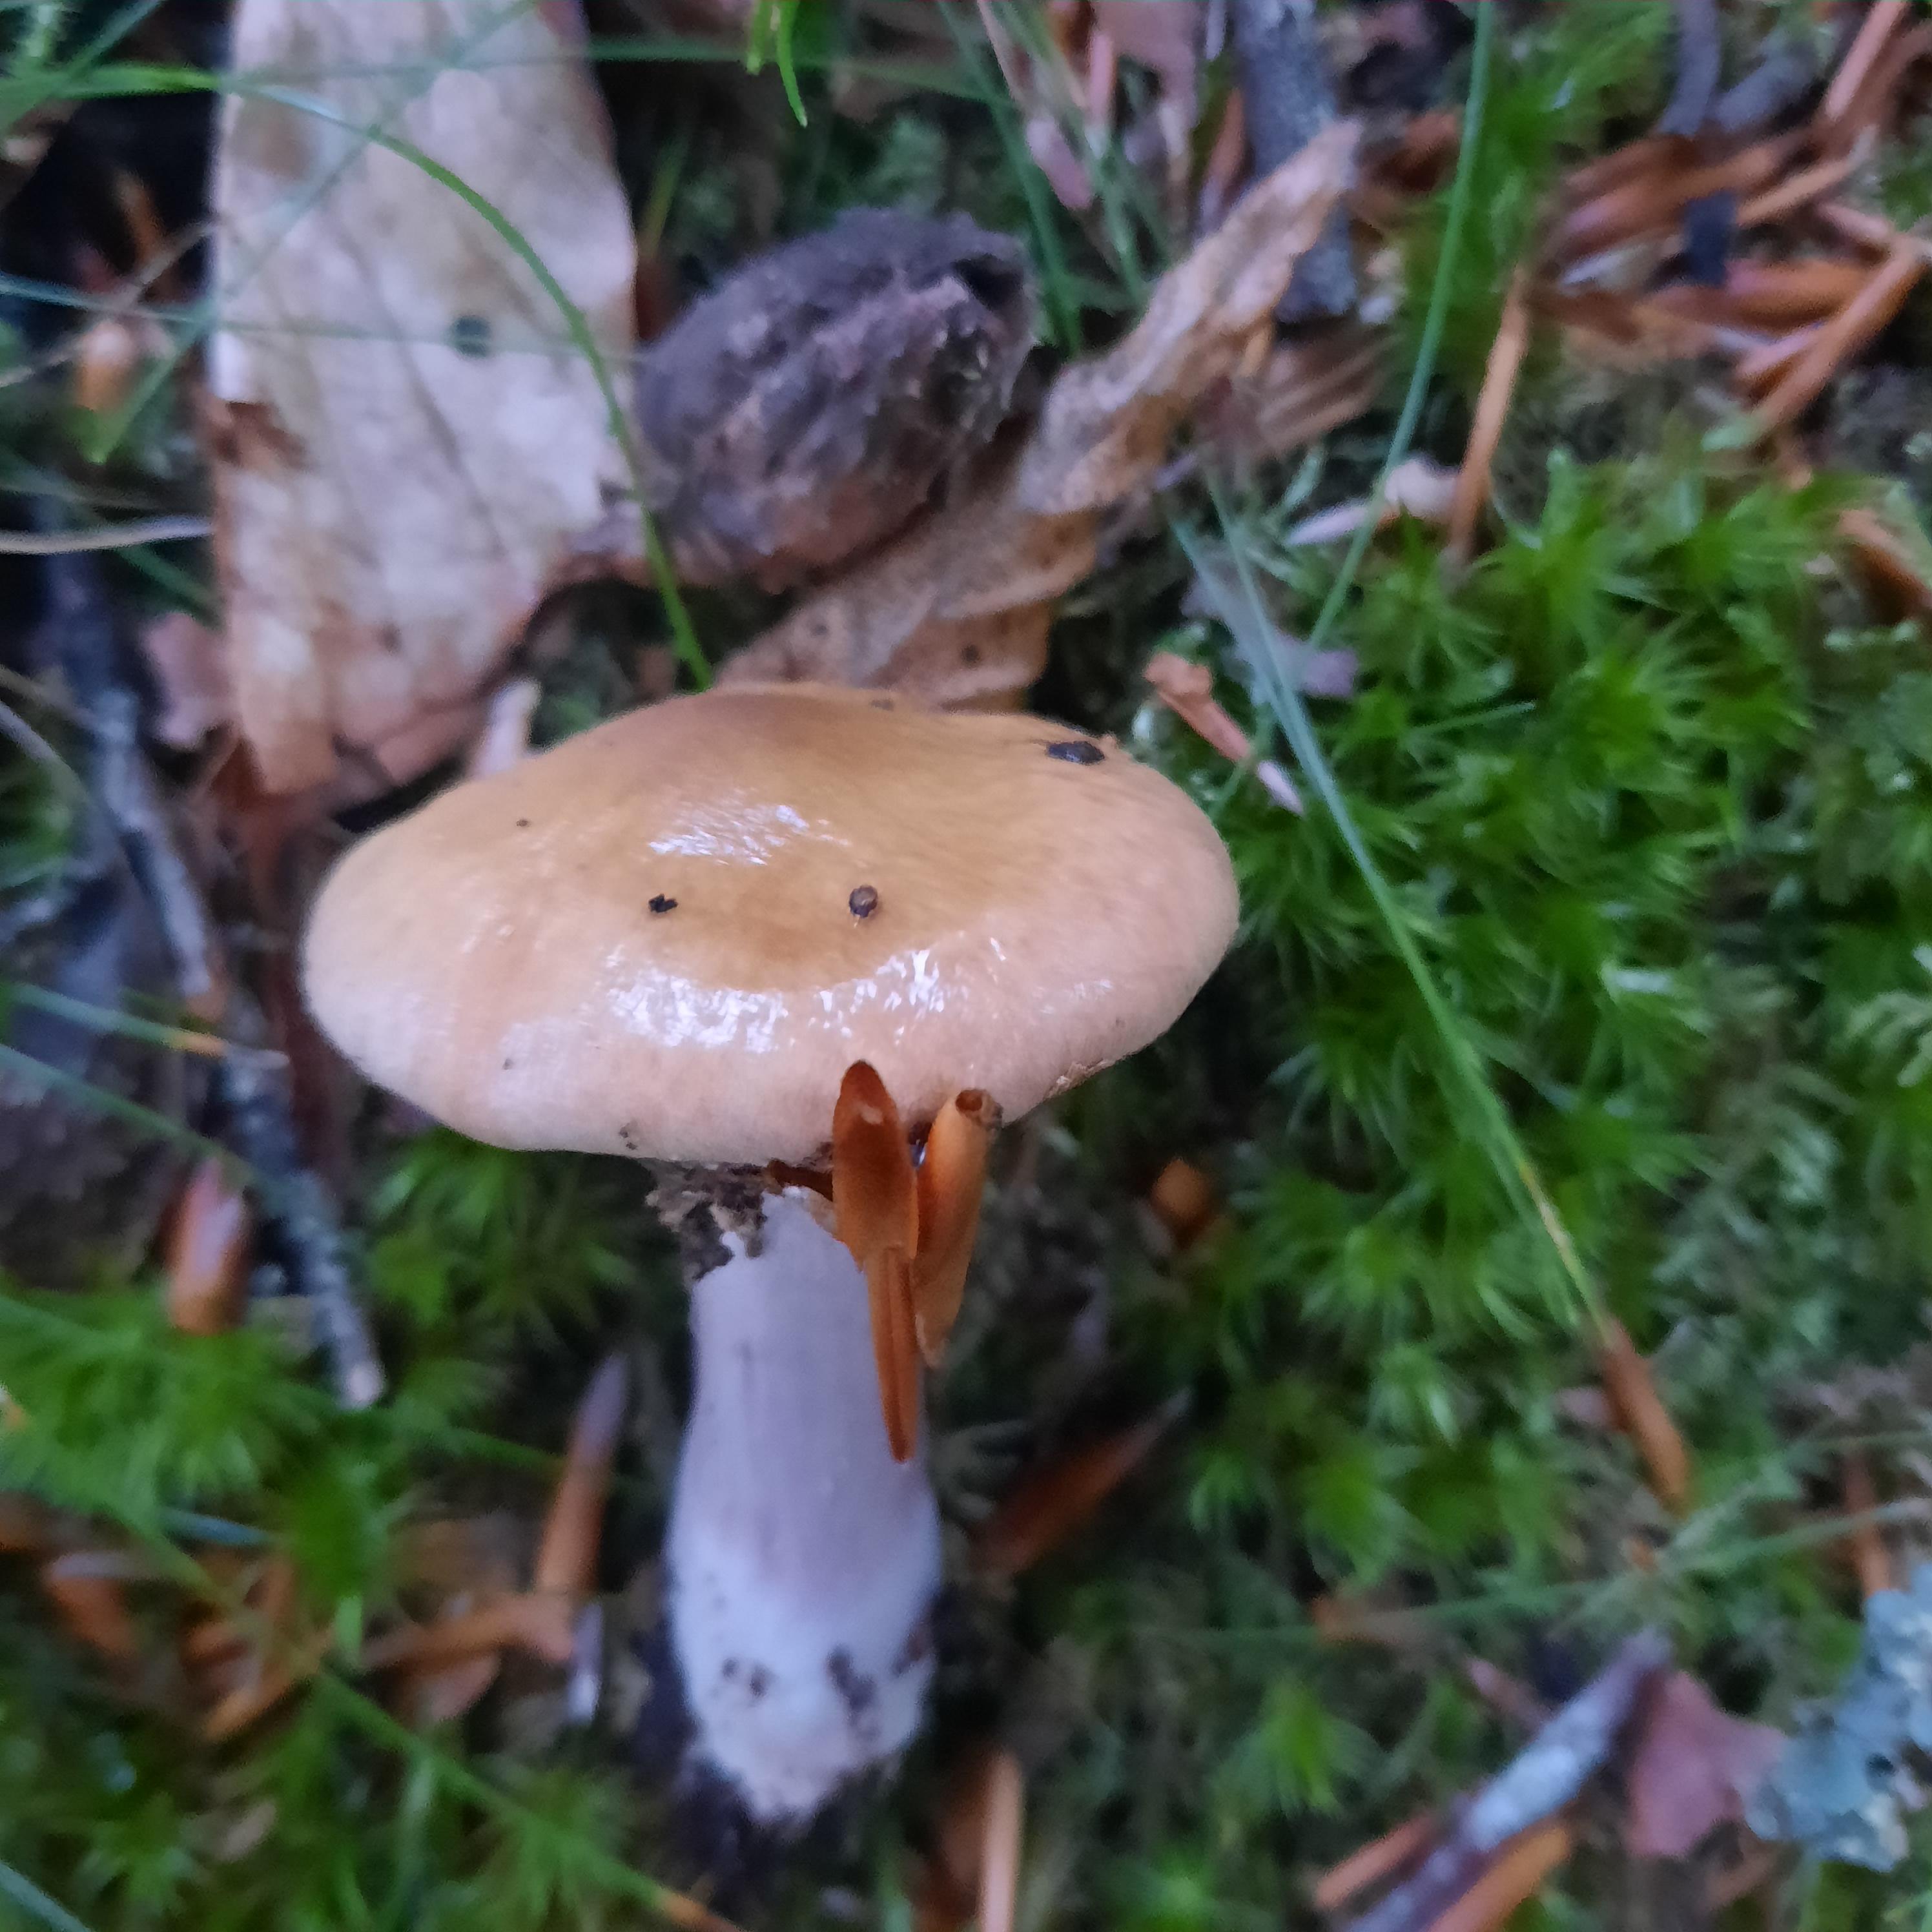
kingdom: Fungi
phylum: Basidiomycota
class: Agaricomycetes
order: Agaricales
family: Cortinariaceae
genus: Cortinarius
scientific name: Cortinarius
